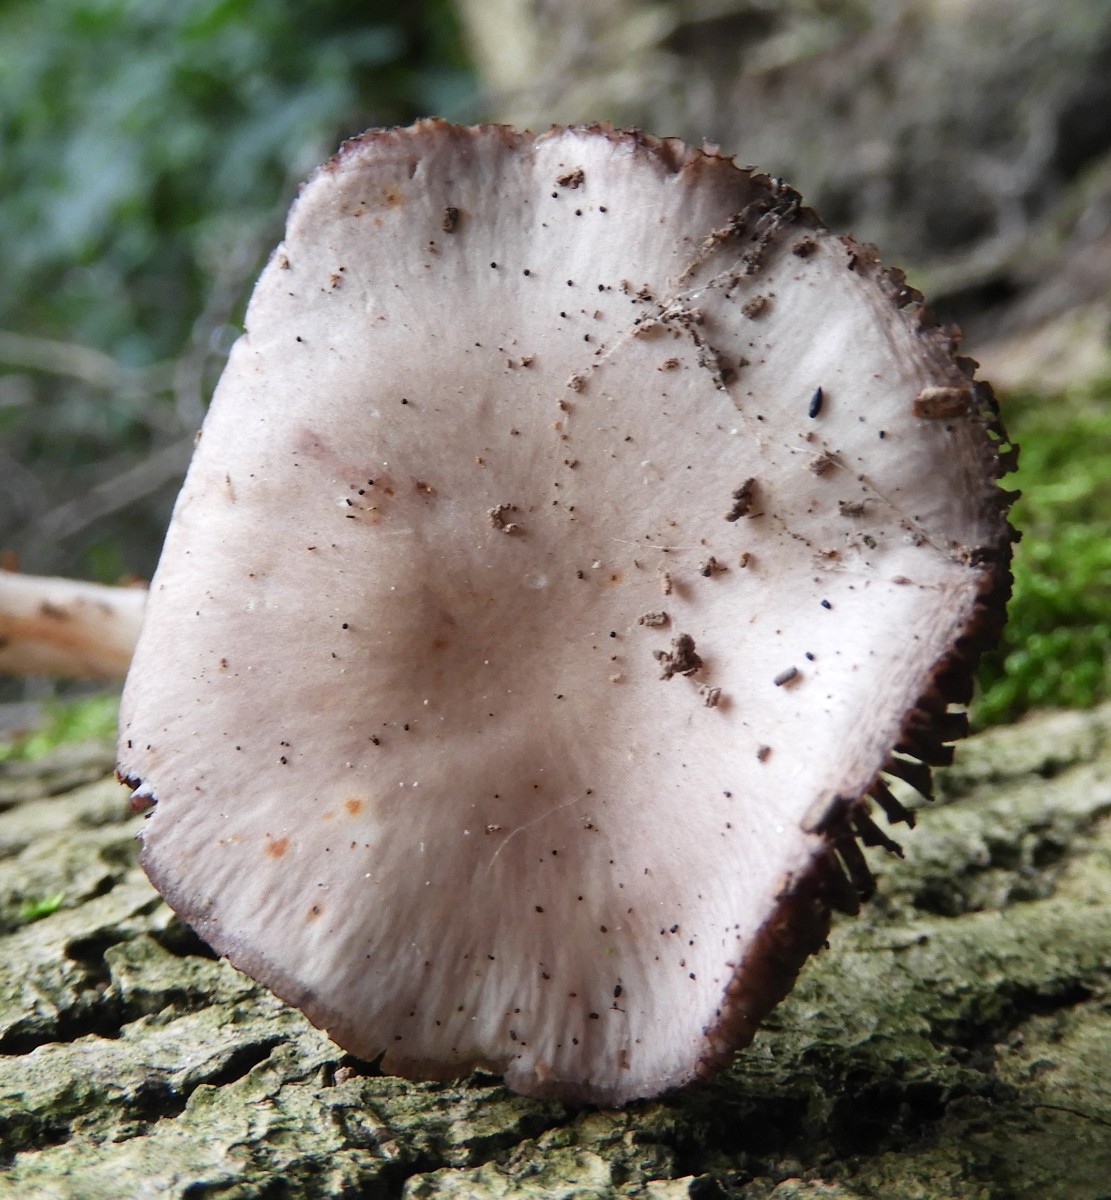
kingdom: Fungi
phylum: Basidiomycota
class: Agaricomycetes
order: Agaricales
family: Mycenaceae
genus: Mycena
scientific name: Mycena pelianthina
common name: mørkbladet huesvamp
